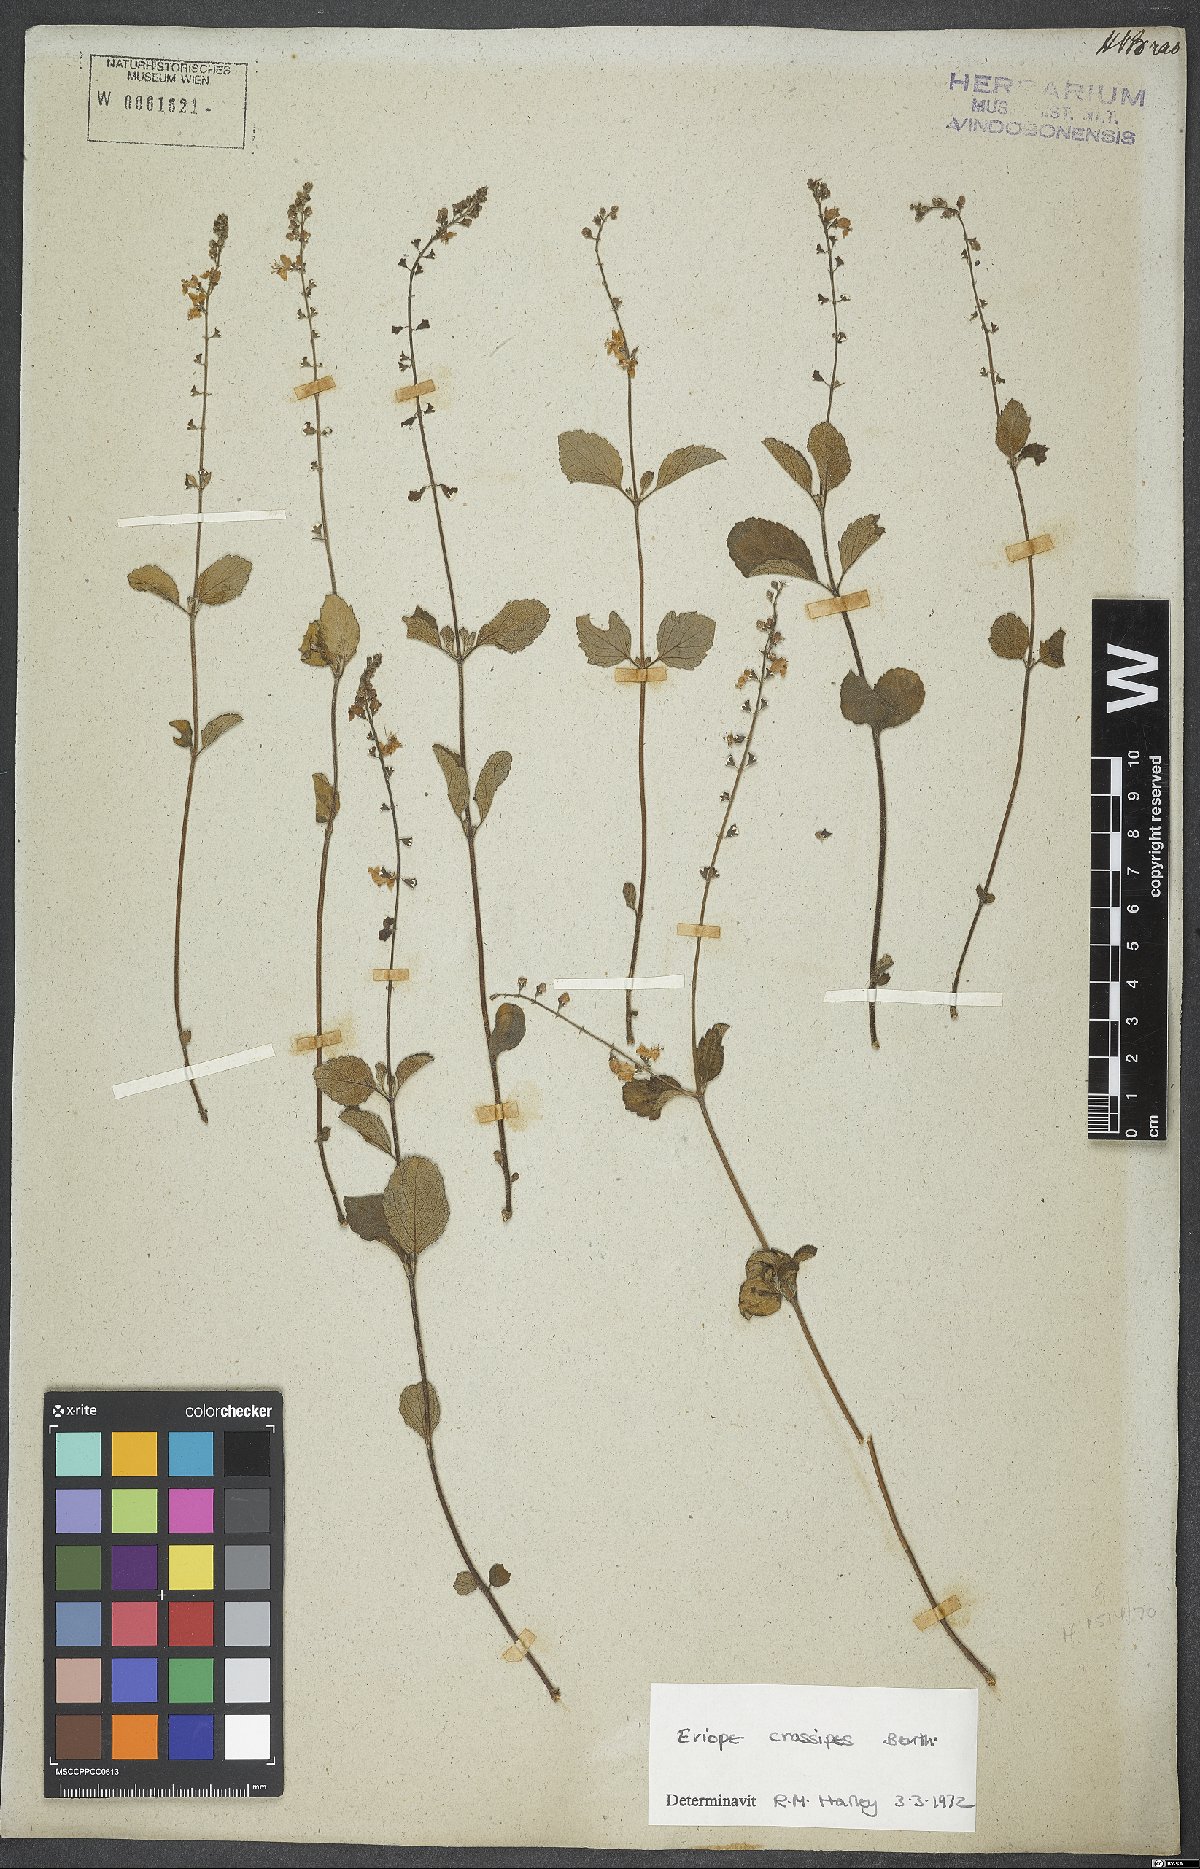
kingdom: Plantae
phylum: Tracheophyta
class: Magnoliopsida
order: Lamiales
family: Lamiaceae
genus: Eriope
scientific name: Eriope crassipes
